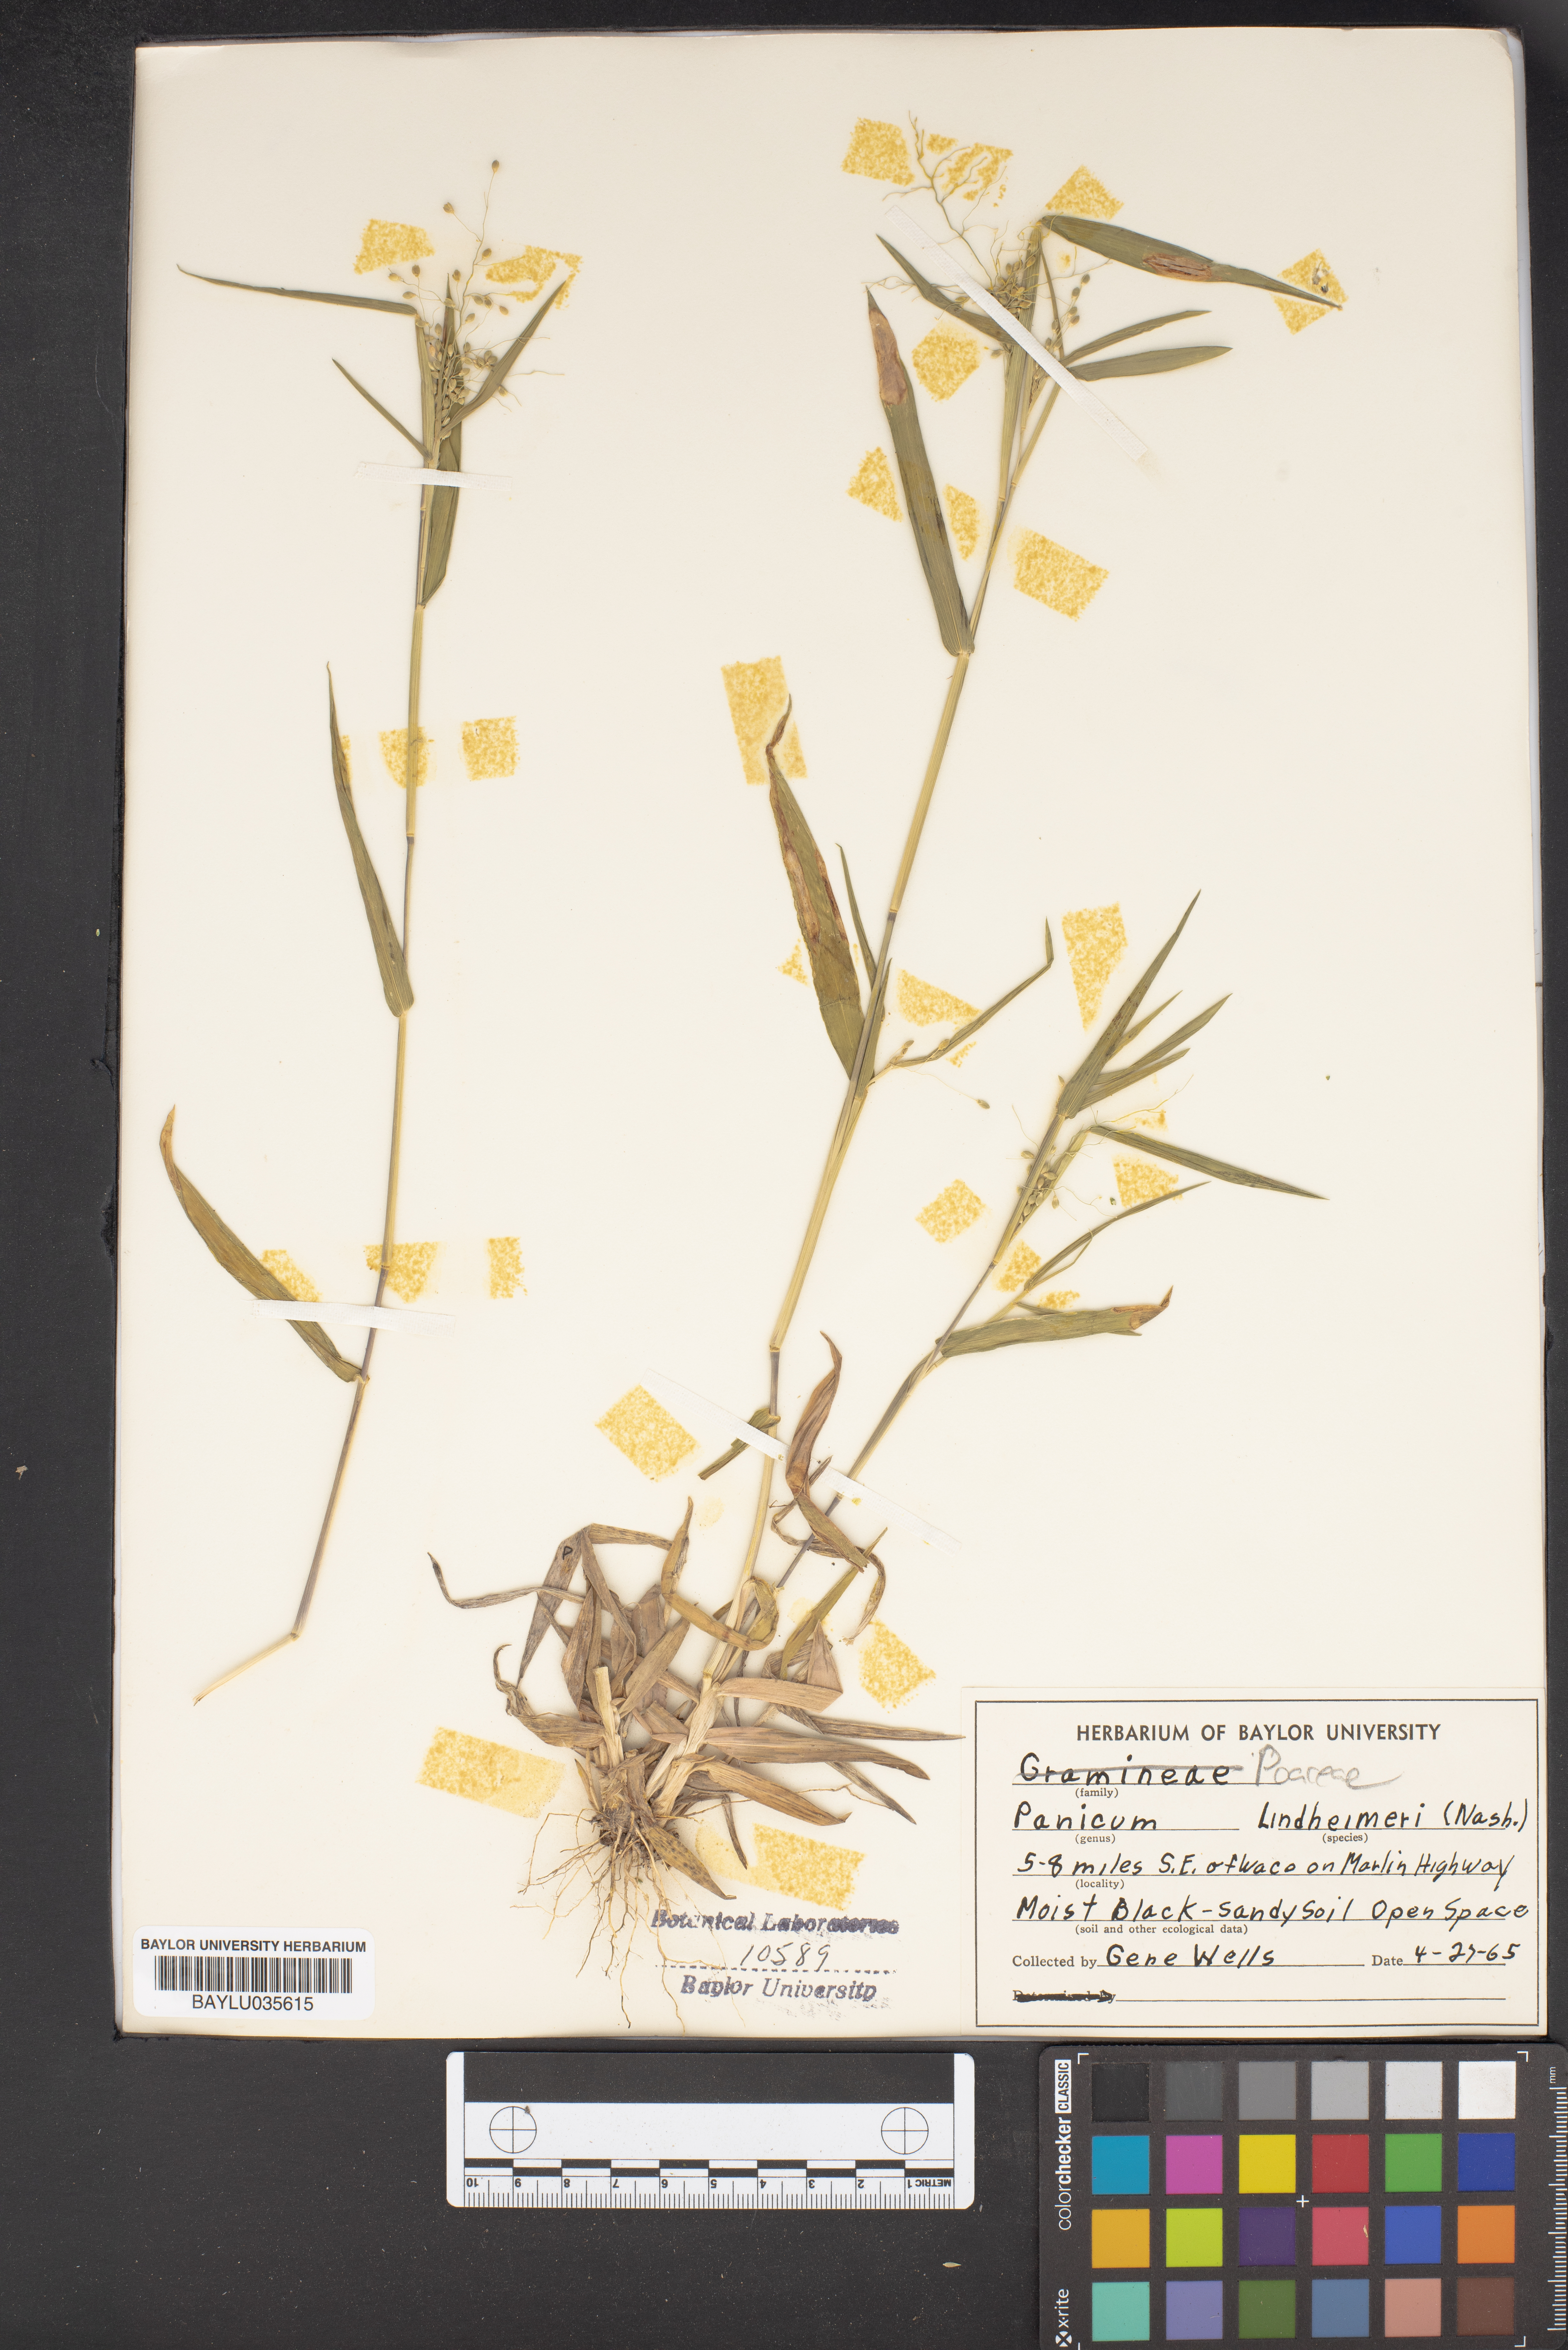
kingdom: Plantae
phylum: Tracheophyta
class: Liliopsida
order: Poales
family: Poaceae
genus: Dichanthelium
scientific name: Dichanthelium lindheimeri
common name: Lindheimer's panicgrass
